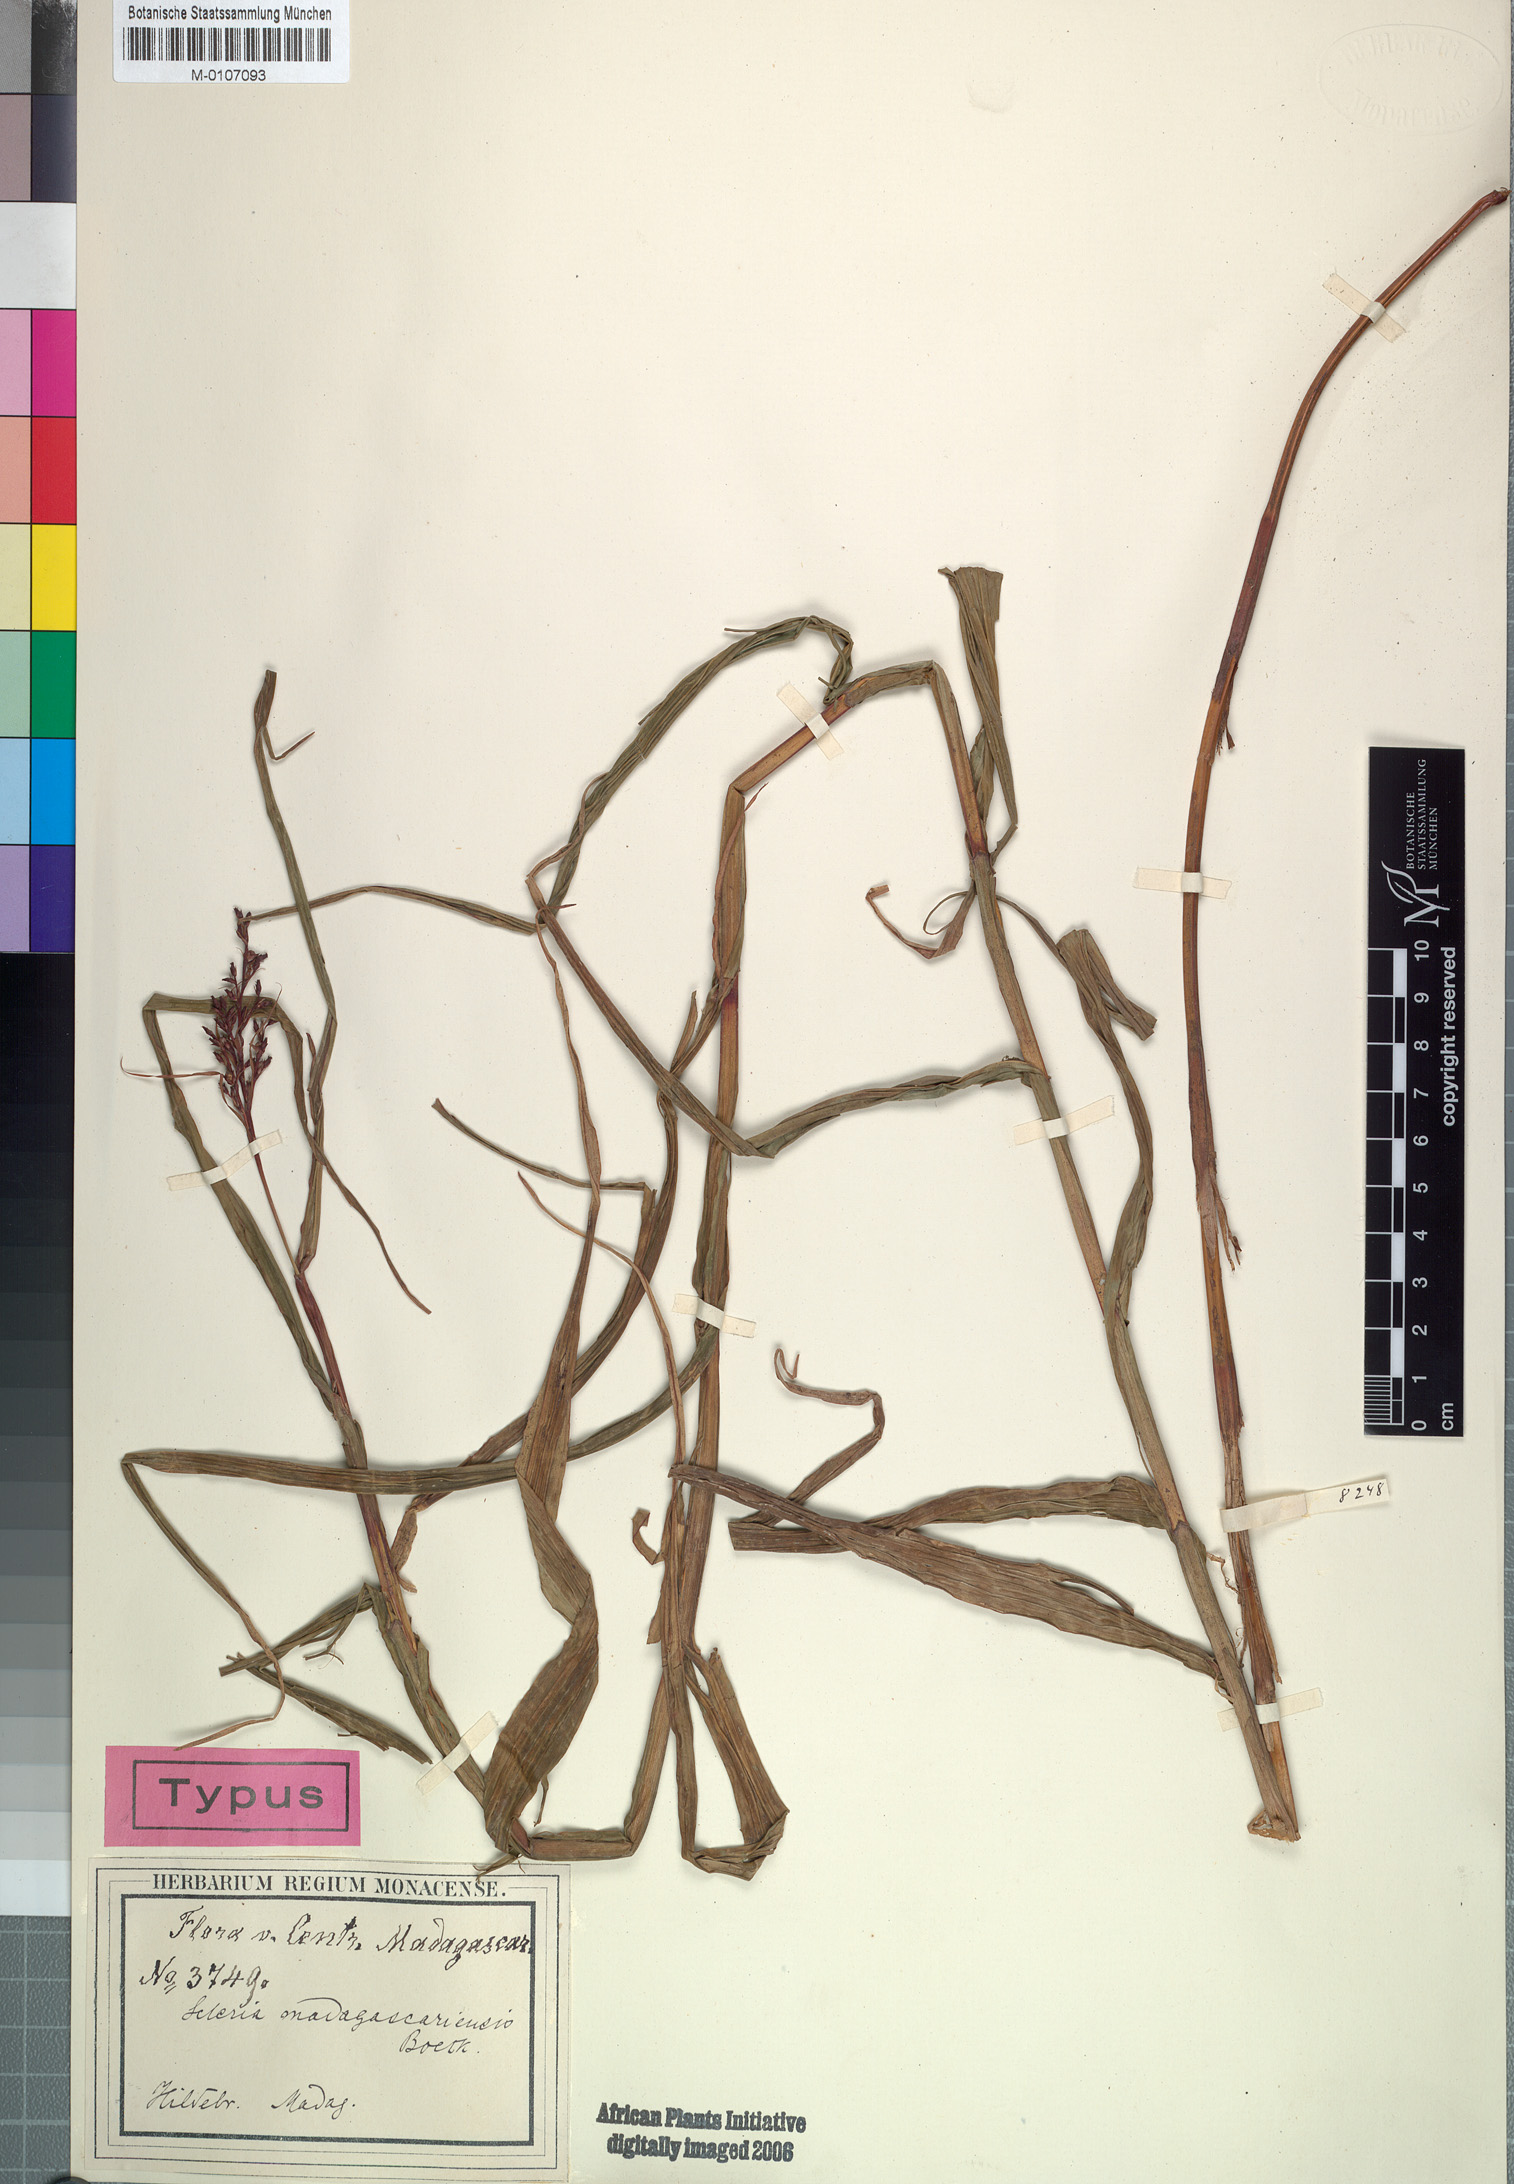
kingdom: Plantae
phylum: Tracheophyta
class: Liliopsida
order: Poales
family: Cyperaceae
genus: Scleria
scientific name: Scleria madagascariensis
